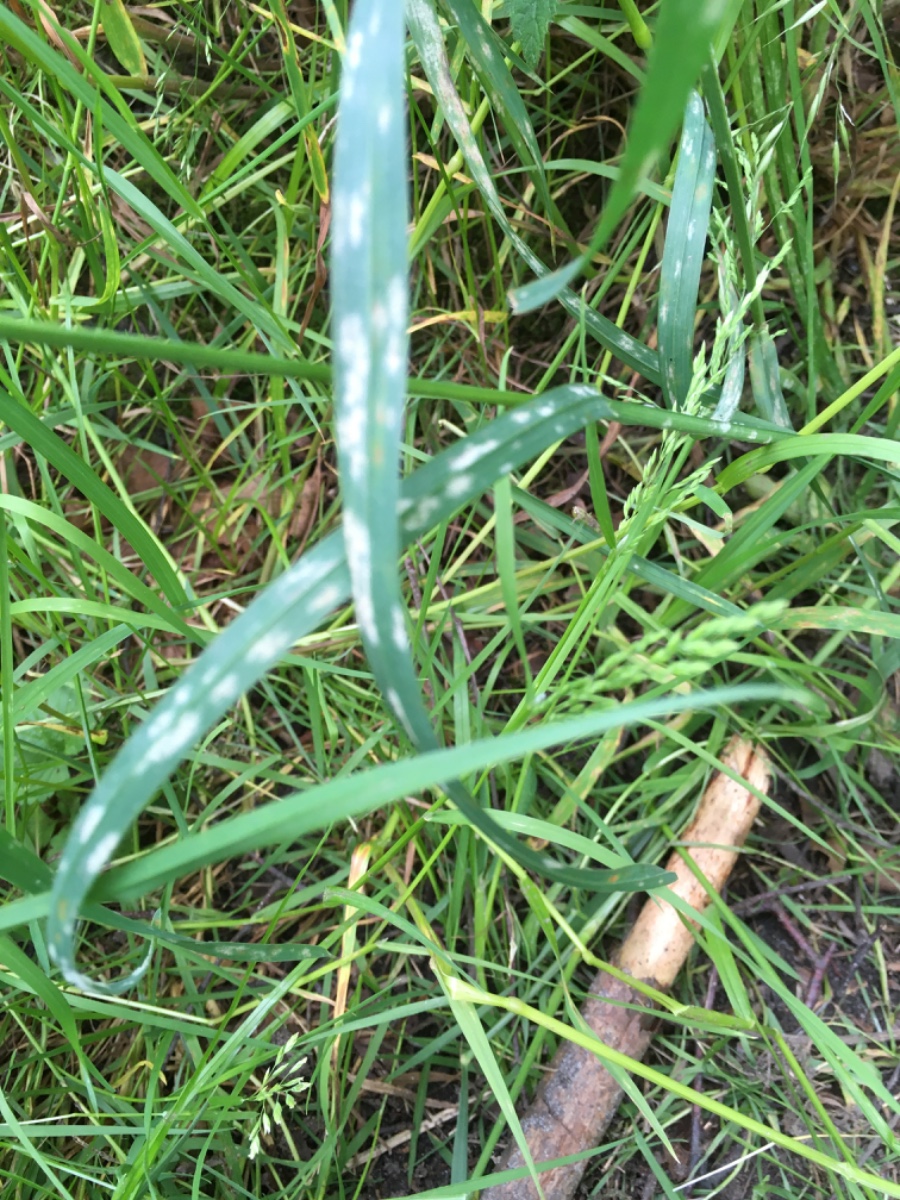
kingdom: Fungi
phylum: Ascomycota
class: Leotiomycetes
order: Helotiales
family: Erysiphaceae
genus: Blumeria
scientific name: Blumeria graminis
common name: græs-meldug
